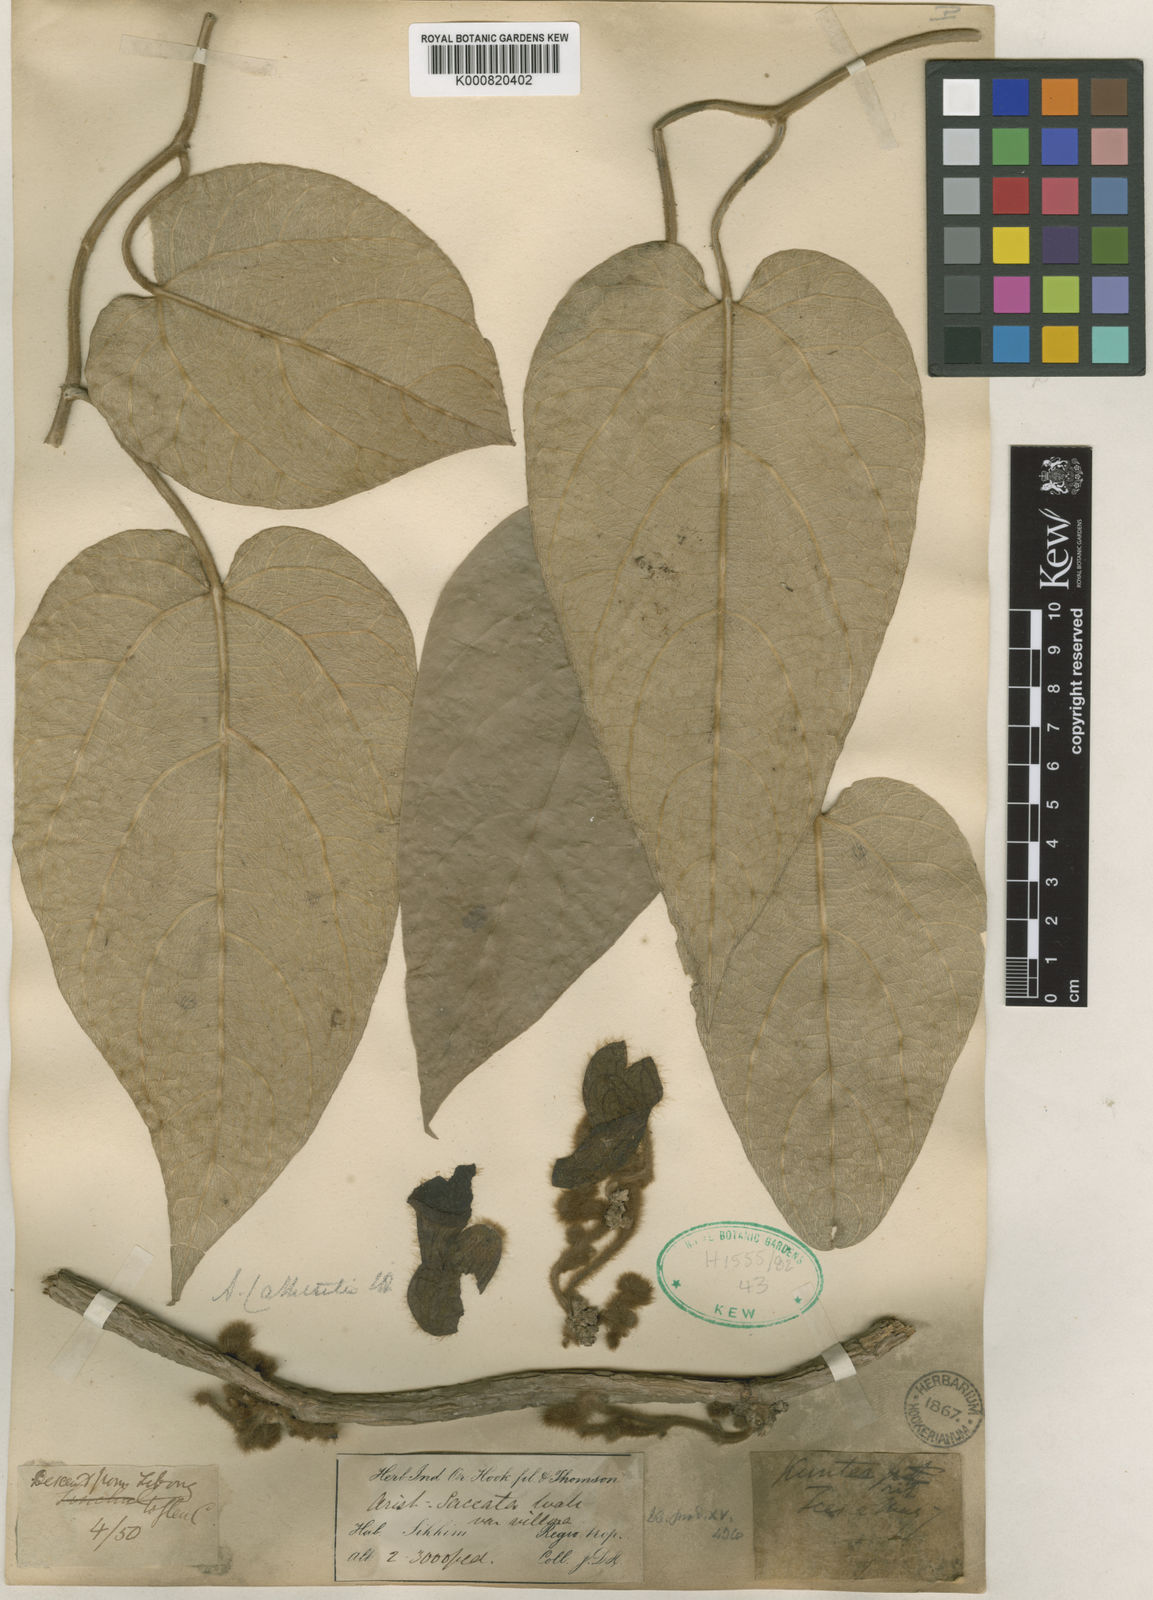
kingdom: Plantae
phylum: Tracheophyta
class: Magnoliopsida
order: Piperales
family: Aristolochiaceae
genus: Isotrema
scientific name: Isotrema
